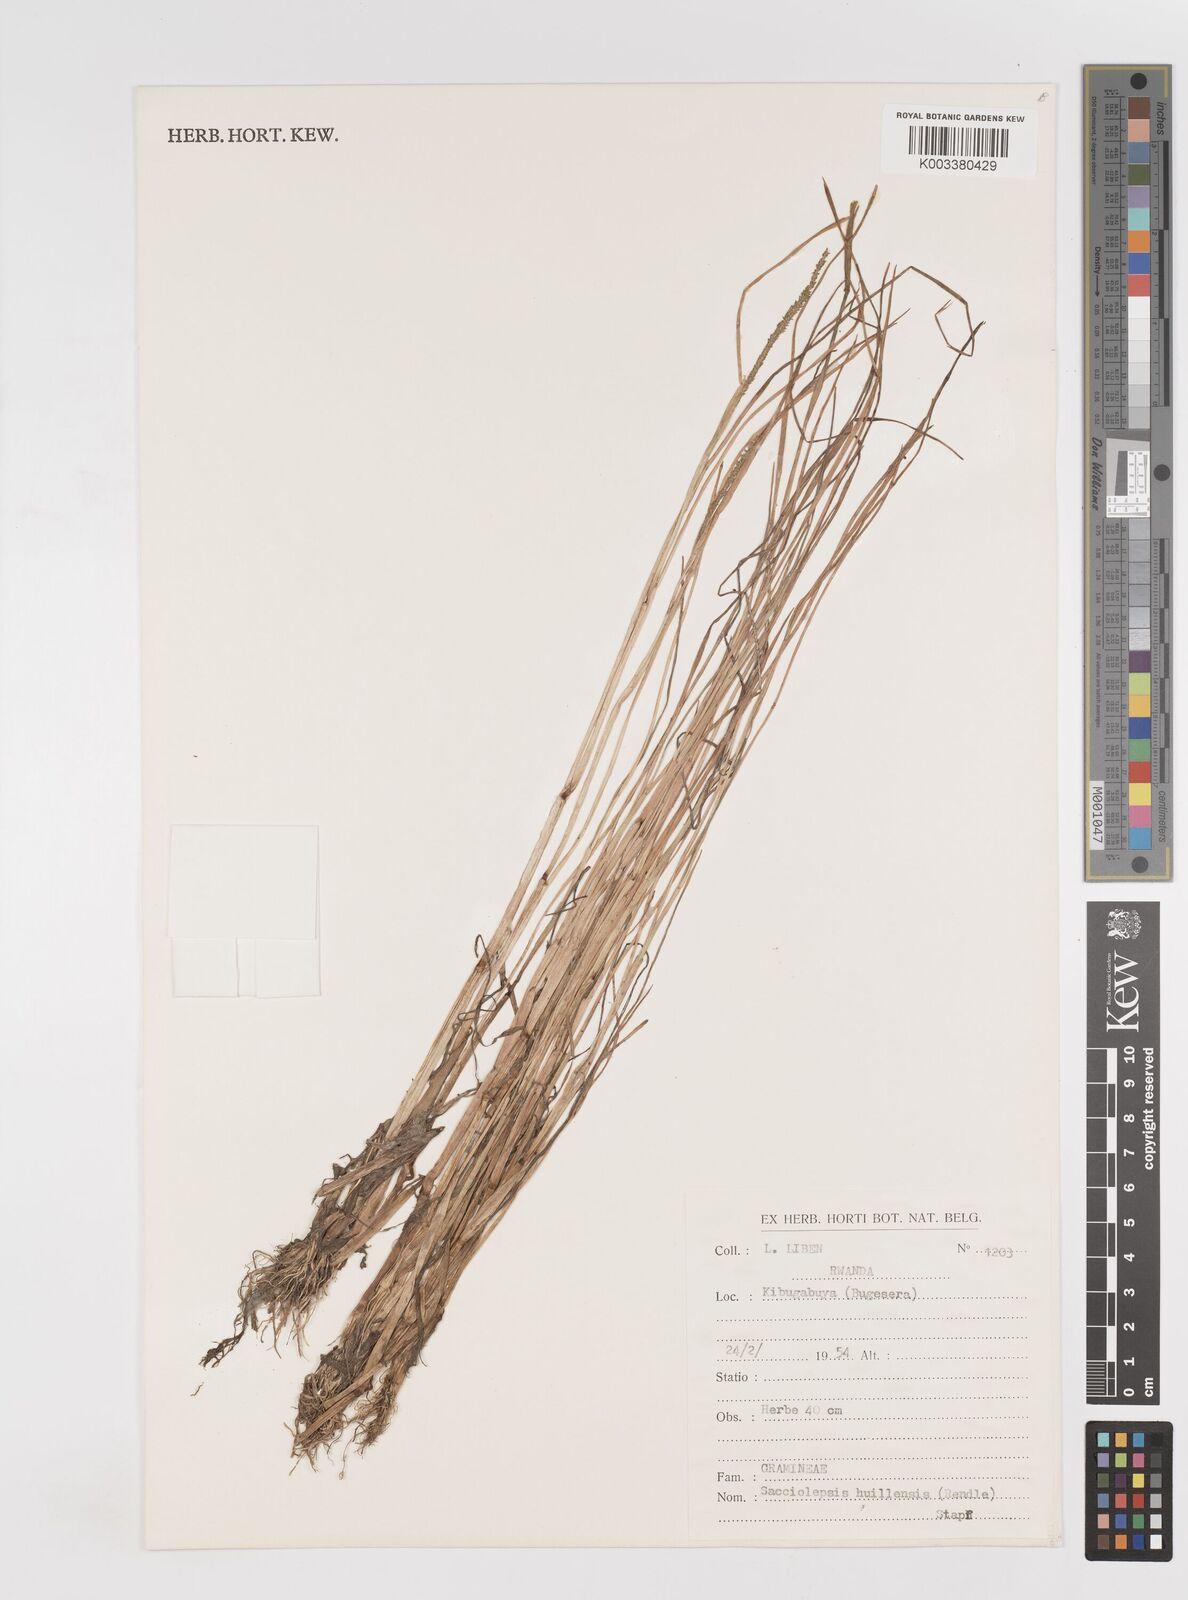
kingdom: Plantae
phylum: Tracheophyta
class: Liliopsida
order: Poales
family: Poaceae
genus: Sacciolepis
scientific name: Sacciolepis myosuroides
